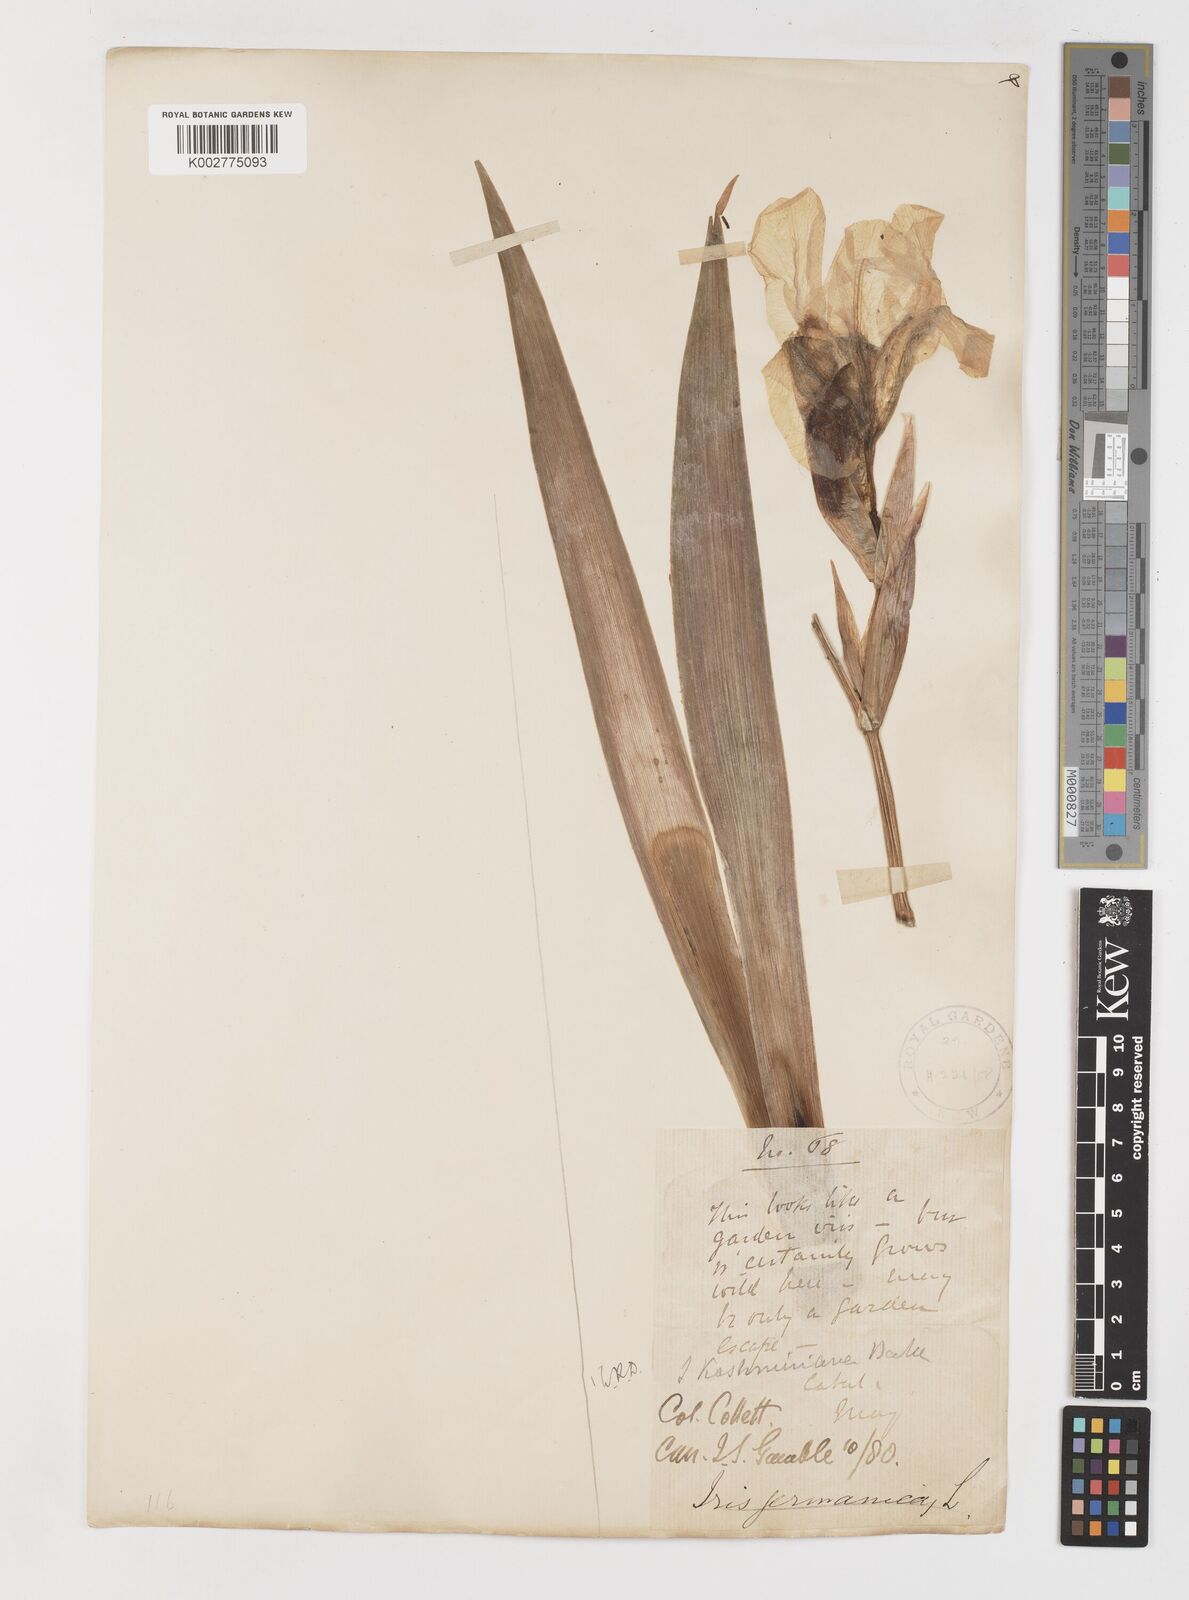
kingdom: Plantae
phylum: Tracheophyta
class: Liliopsida
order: Asparagales
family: Iridaceae
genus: Iris
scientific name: Iris kashmiriana
